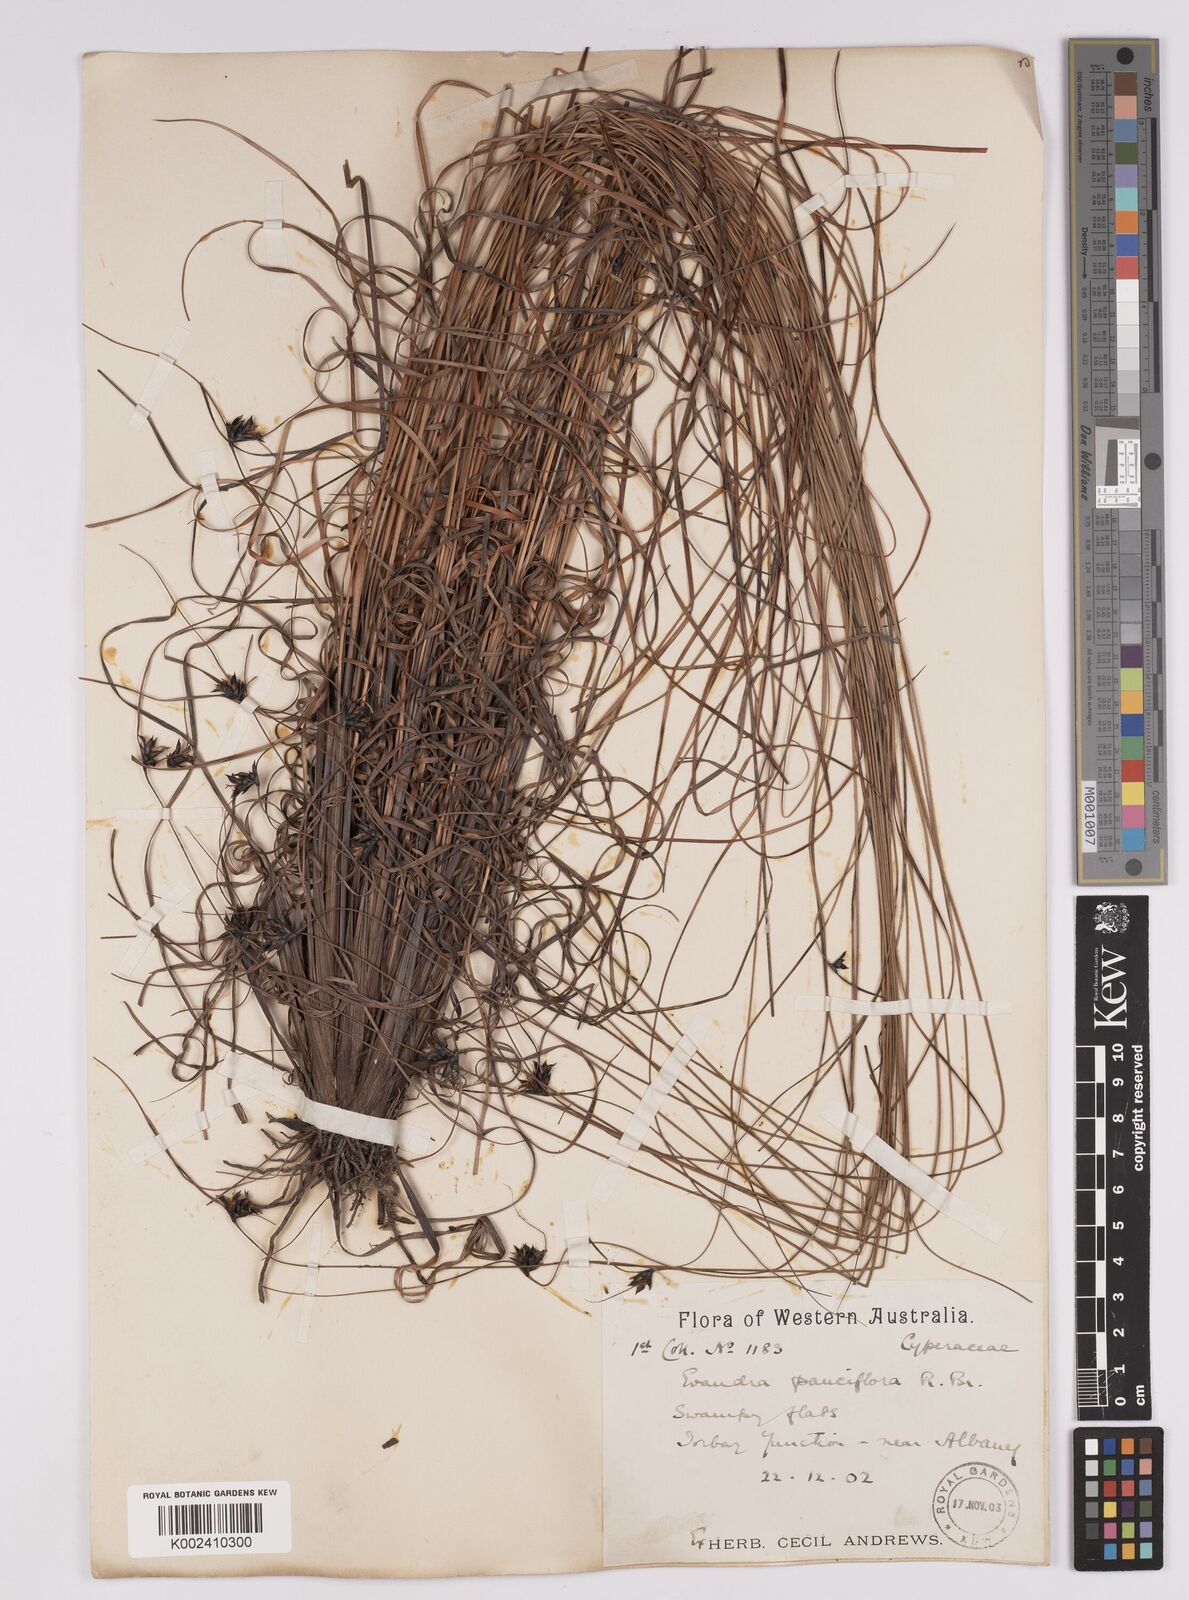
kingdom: Plantae
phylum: Tracheophyta
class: Liliopsida
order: Poales
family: Cyperaceae
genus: Evandra
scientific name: Evandra pauciflora
